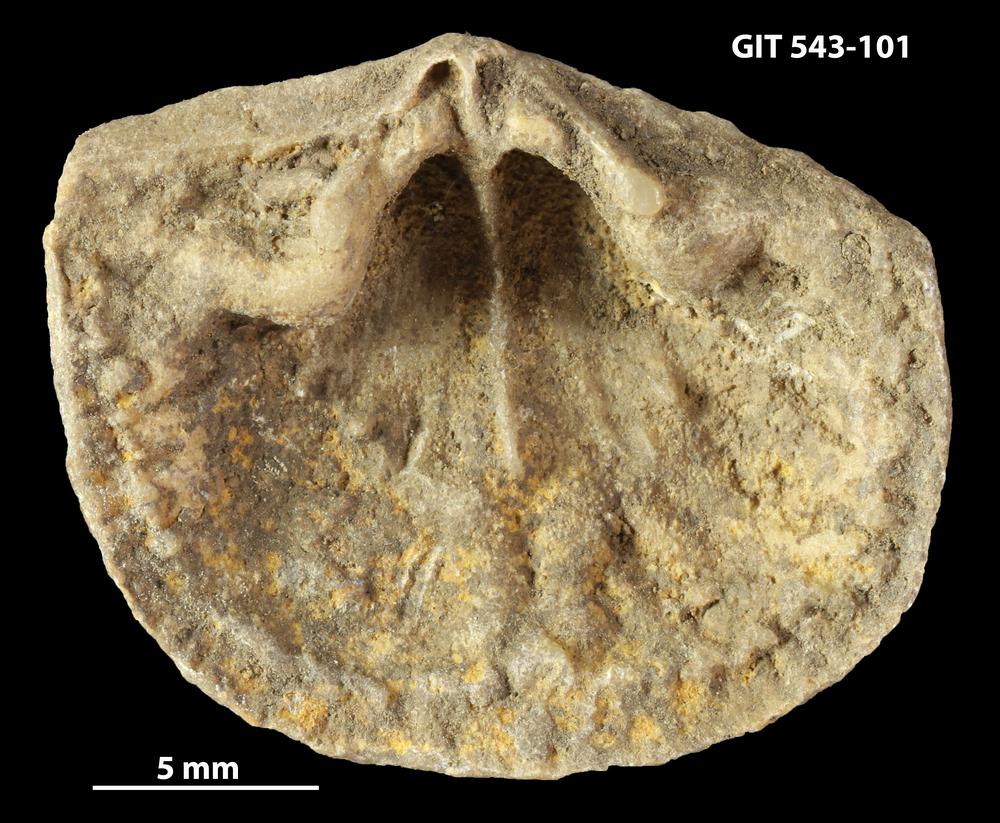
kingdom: Animalia
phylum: Brachiopoda
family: Gonambonitidae
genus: Estlandia
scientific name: Estlandia Orthisina marginata
